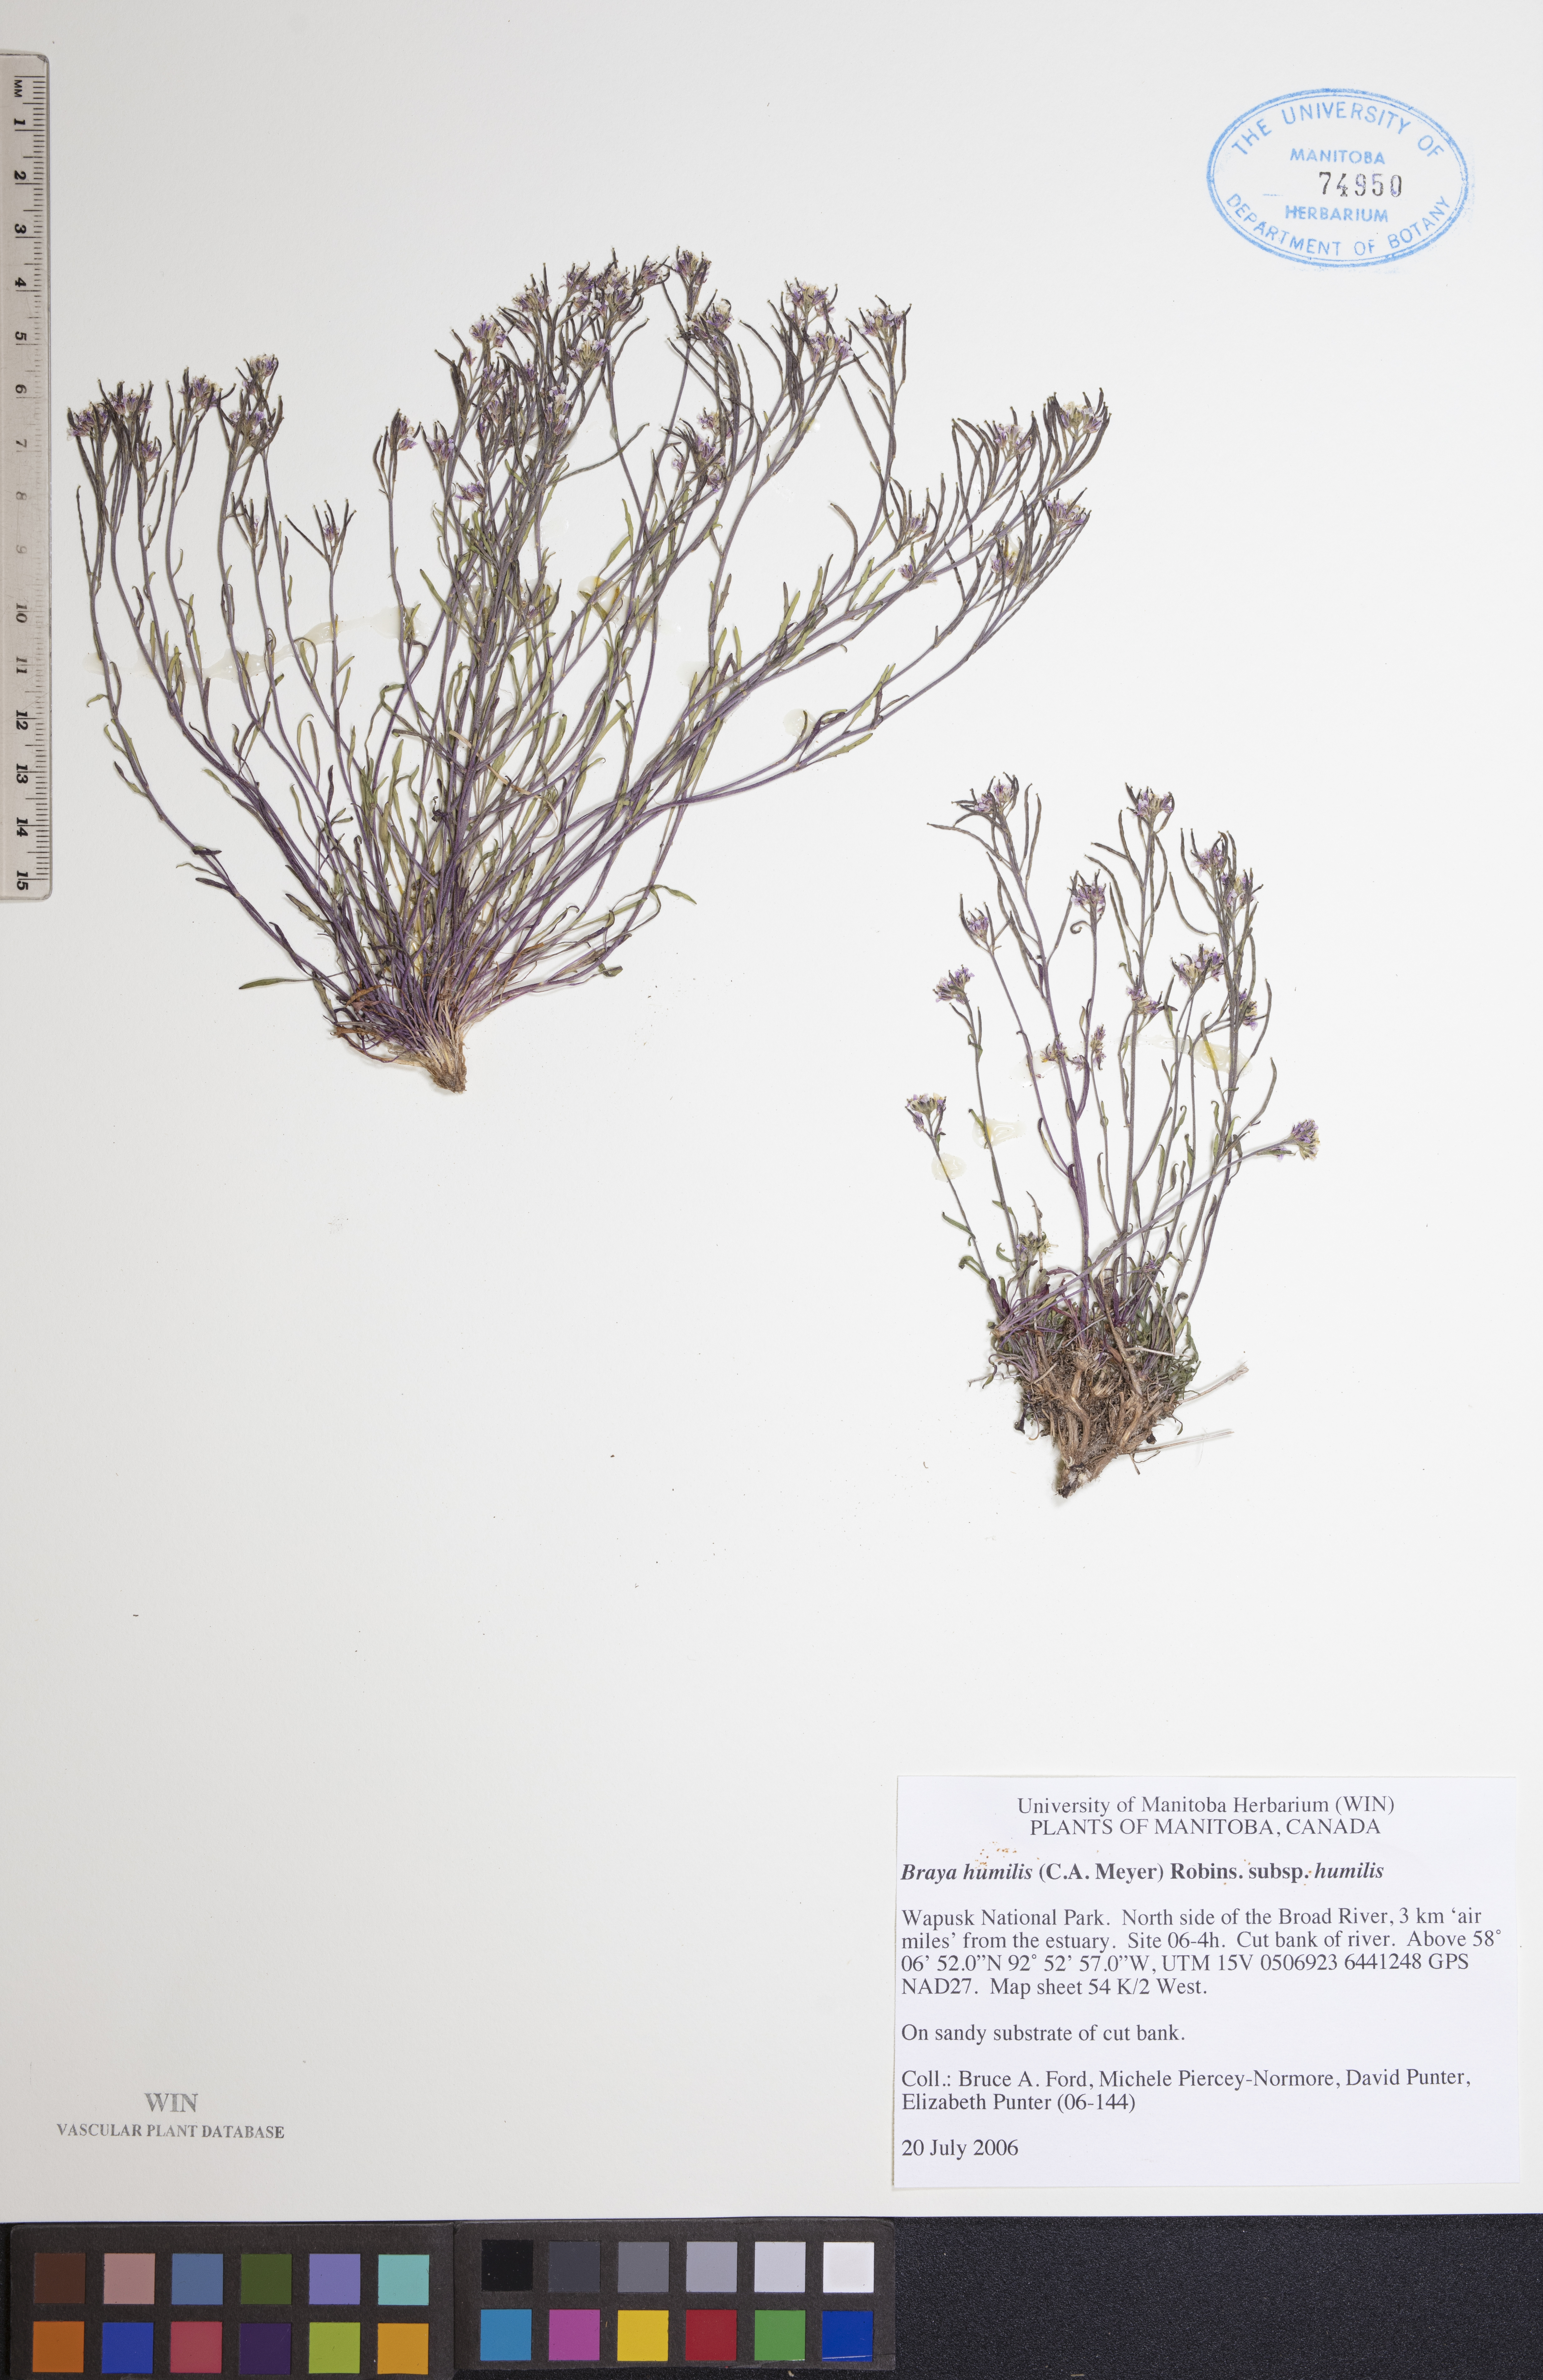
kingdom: Plantae
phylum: Tracheophyta
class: Magnoliopsida
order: Brassicales
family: Brassicaceae
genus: Braya
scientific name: Braya humilis
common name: Alpine northern rockcress
